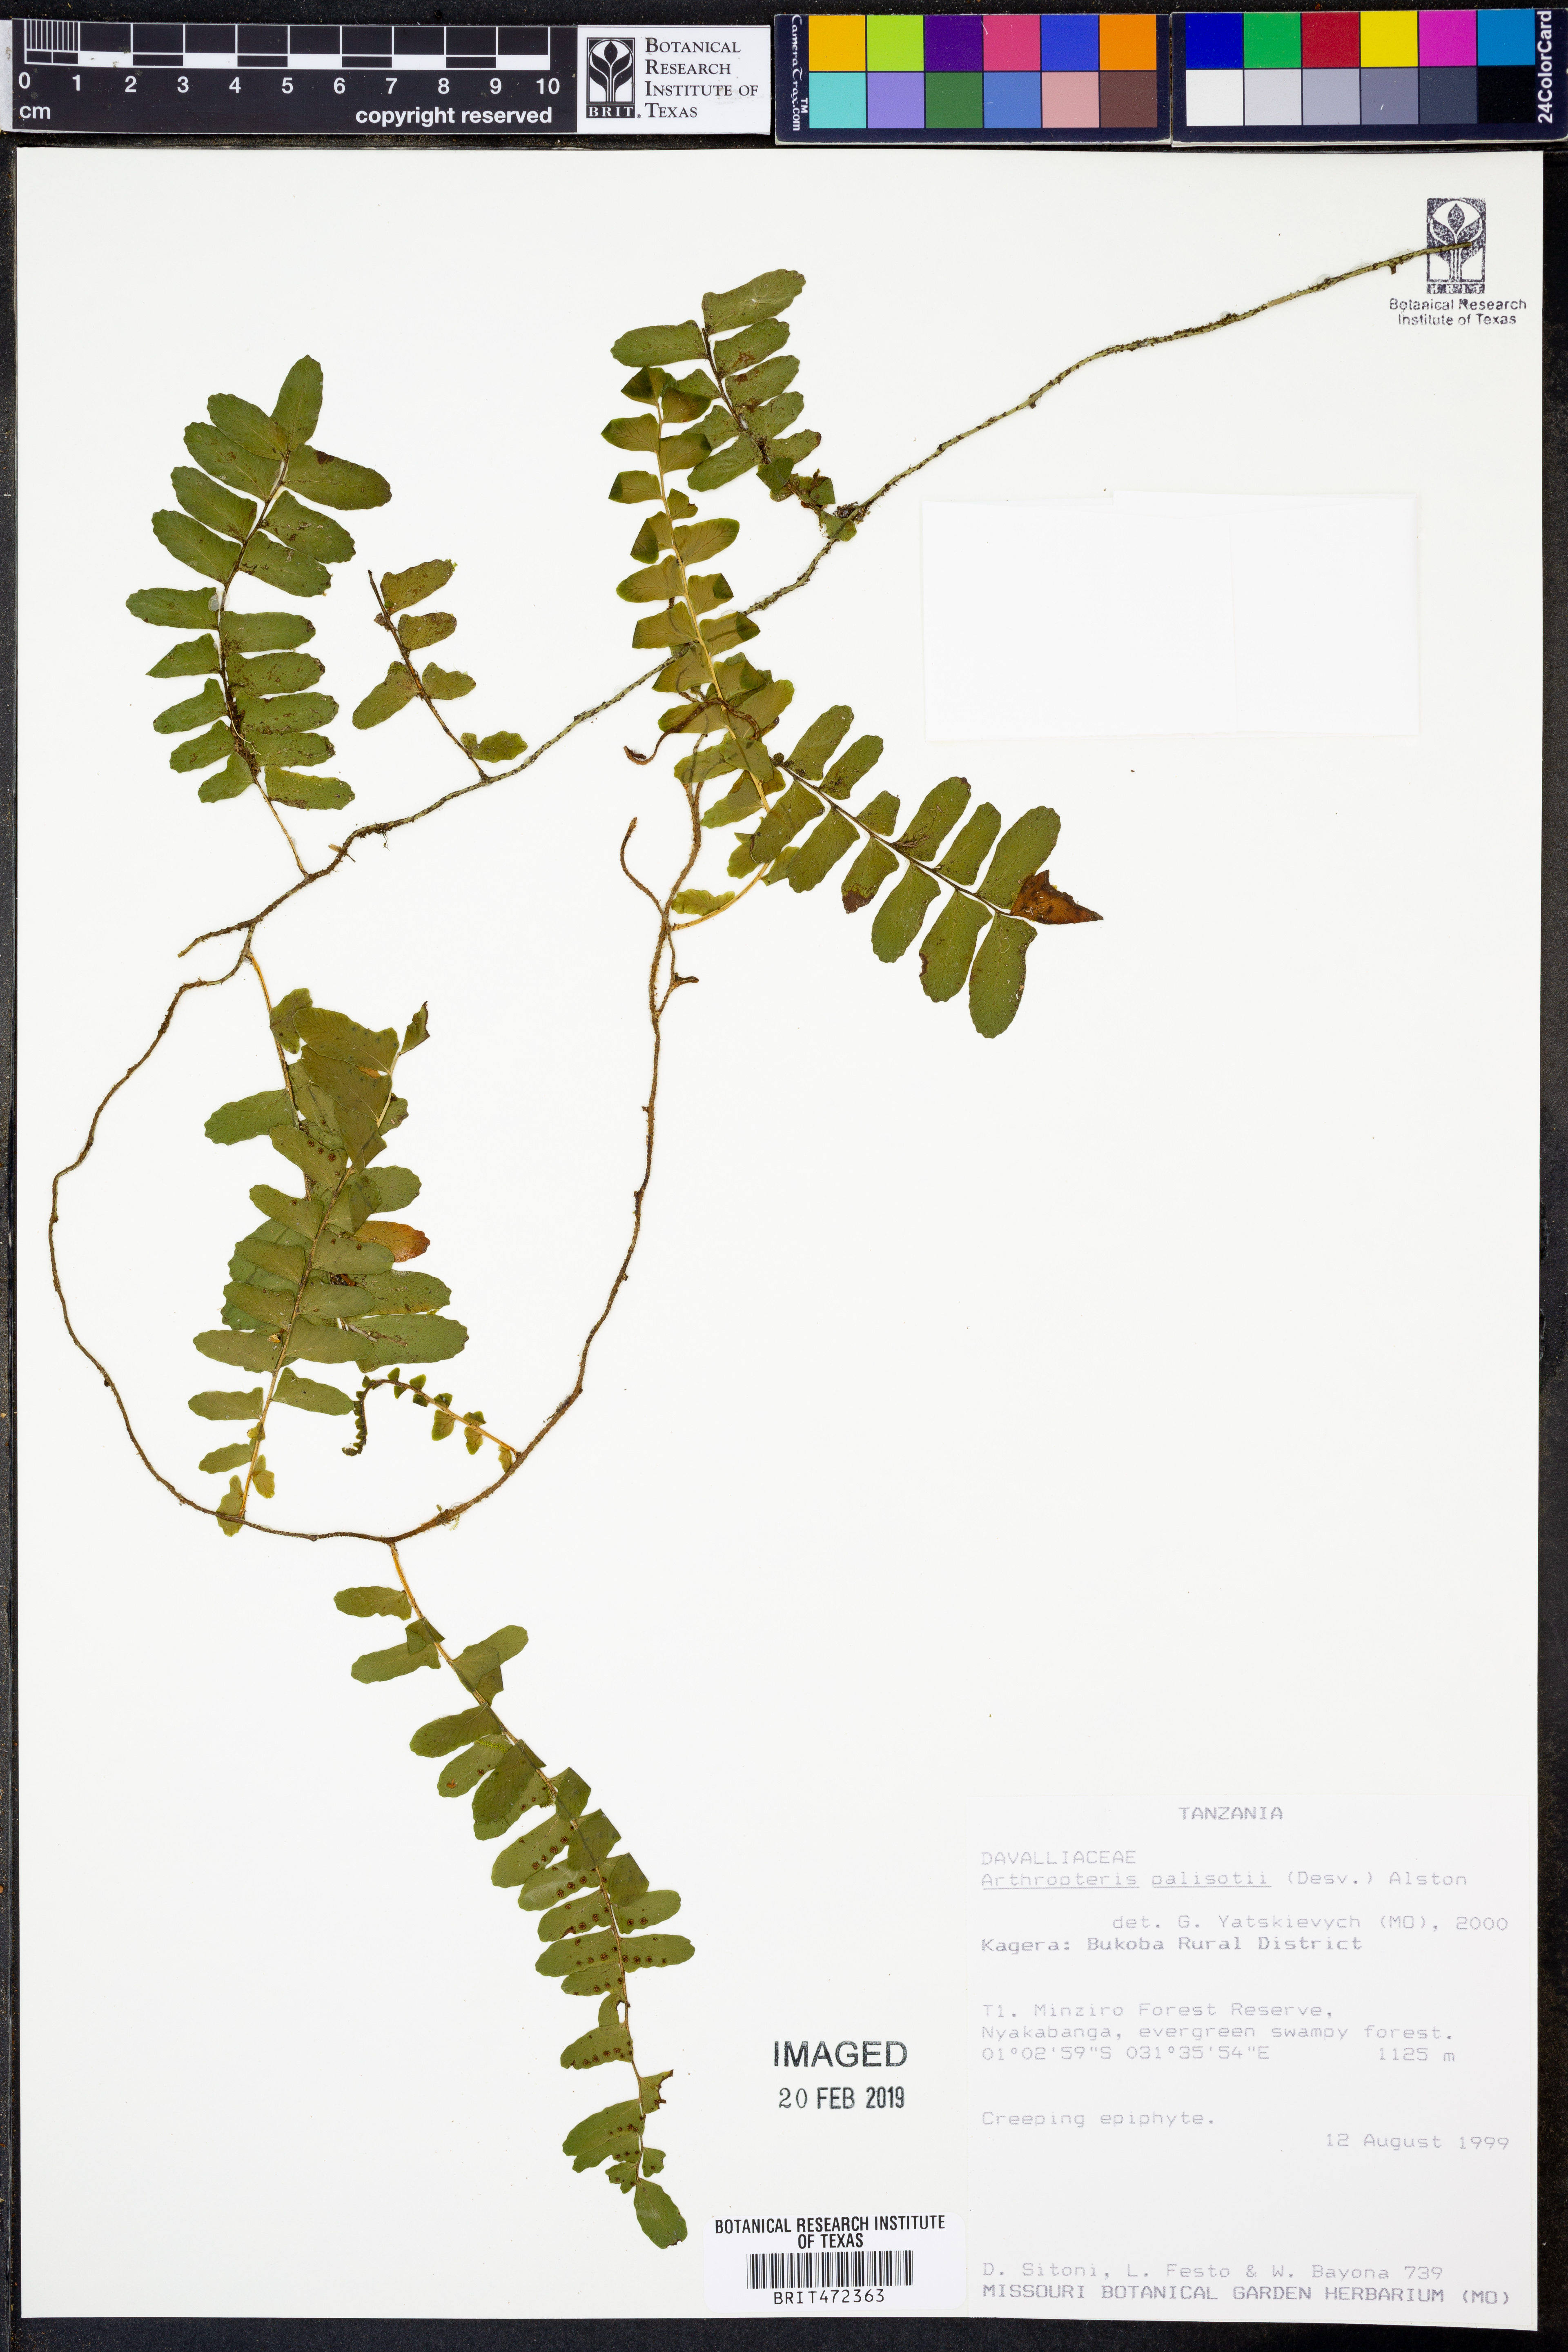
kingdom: Plantae
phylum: Tracheophyta
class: Polypodiopsida
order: Polypodiales
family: Tectariaceae
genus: Arthropteris
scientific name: Arthropteris palisotii
